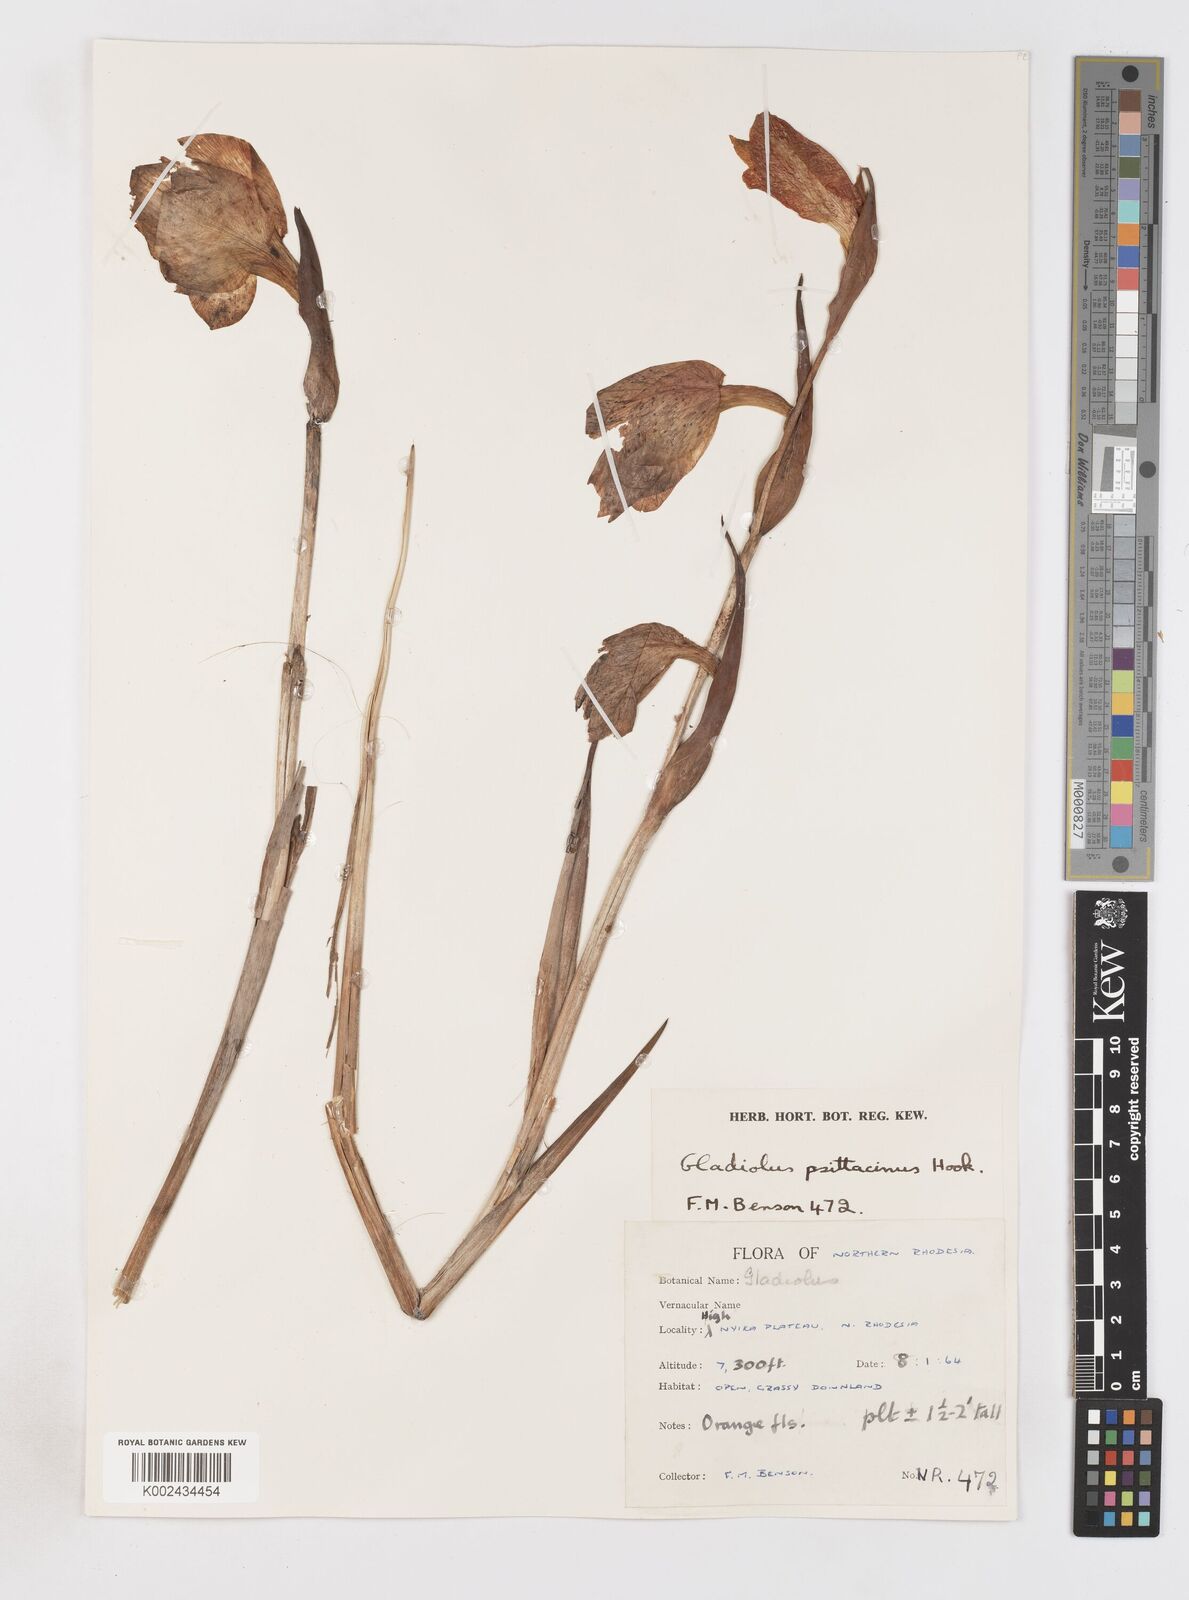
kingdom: Plantae
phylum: Tracheophyta
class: Liliopsida
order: Asparagales
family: Iridaceae
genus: Gladiolus
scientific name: Gladiolus dalenii
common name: Cornflag
